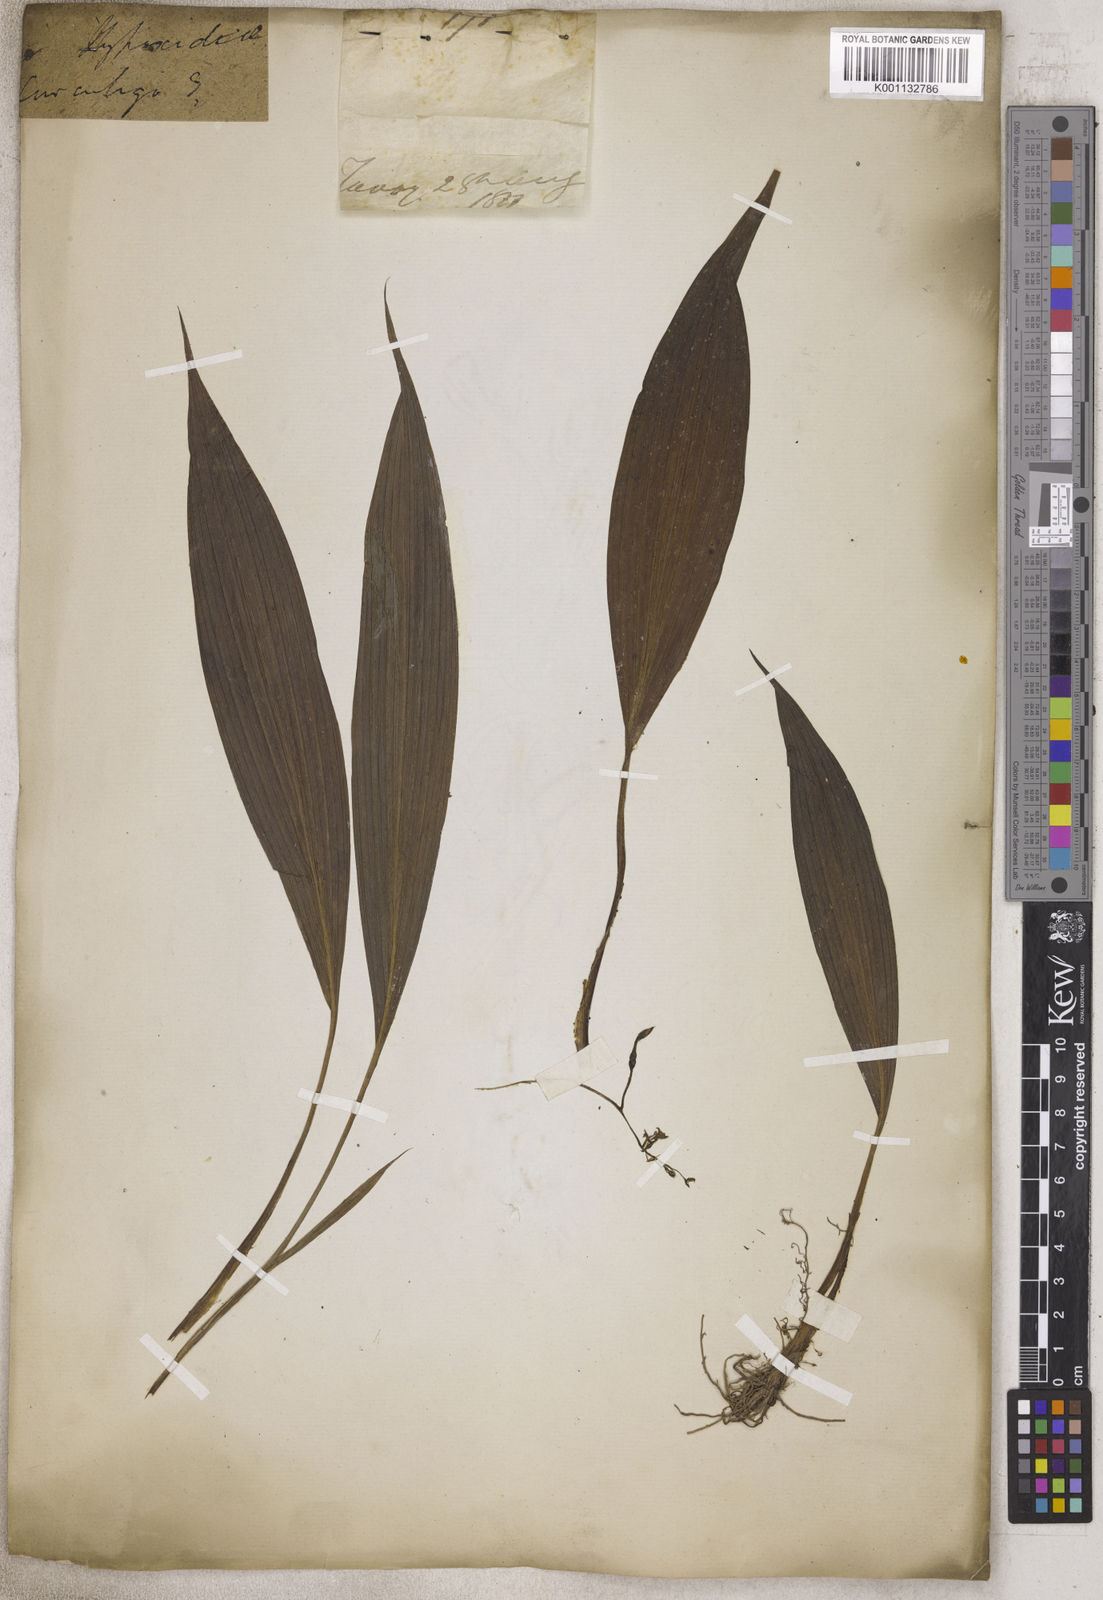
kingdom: Plantae
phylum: Tracheophyta
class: Liliopsida
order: Asparagales
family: Hypoxidaceae
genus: Pauridia
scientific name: Pauridia curculigoides
